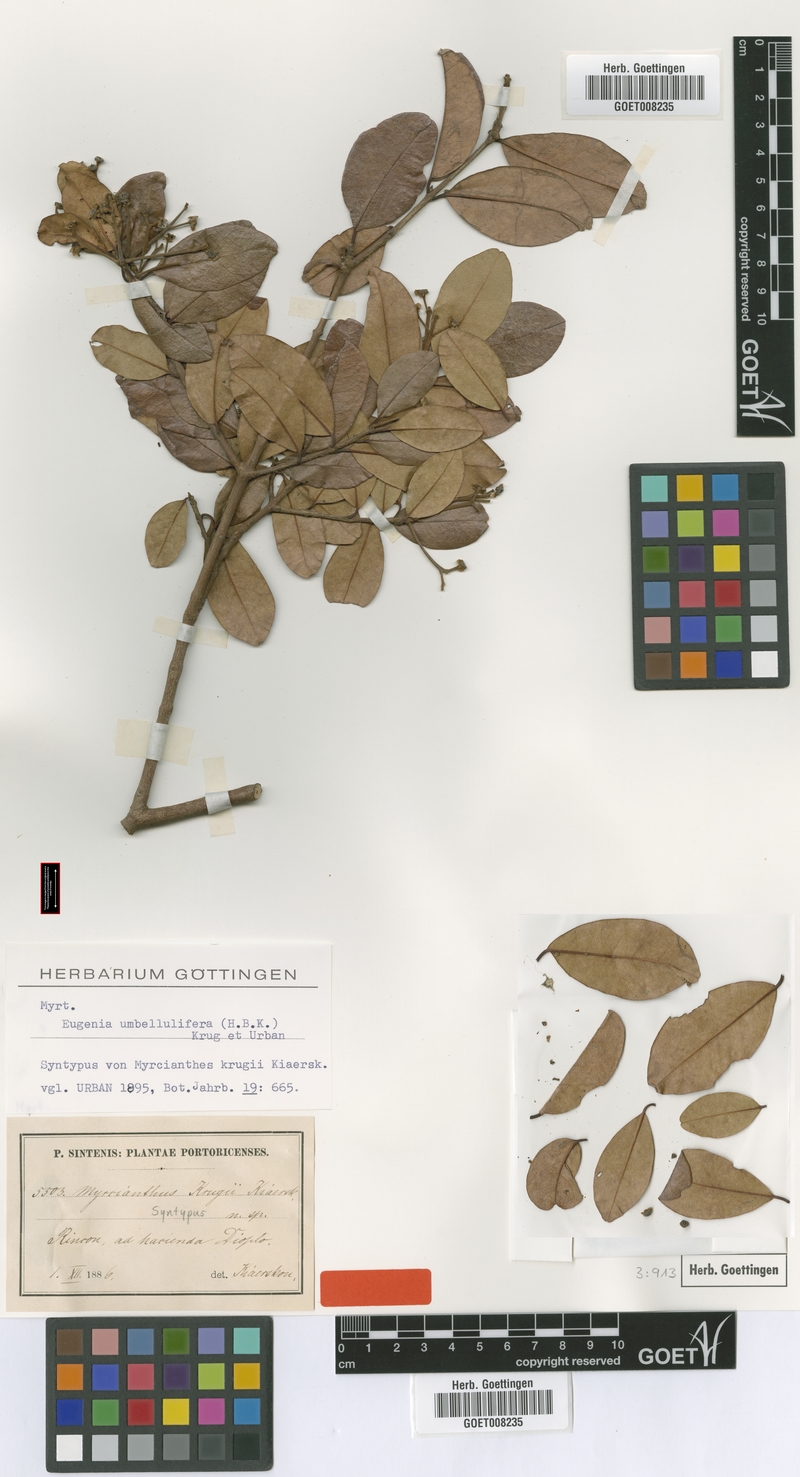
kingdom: Plantae
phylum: Tracheophyta
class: Magnoliopsida
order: Myrtales
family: Myrtaceae
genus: Pseudanamomis
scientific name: Pseudanamomis umbellulifera
